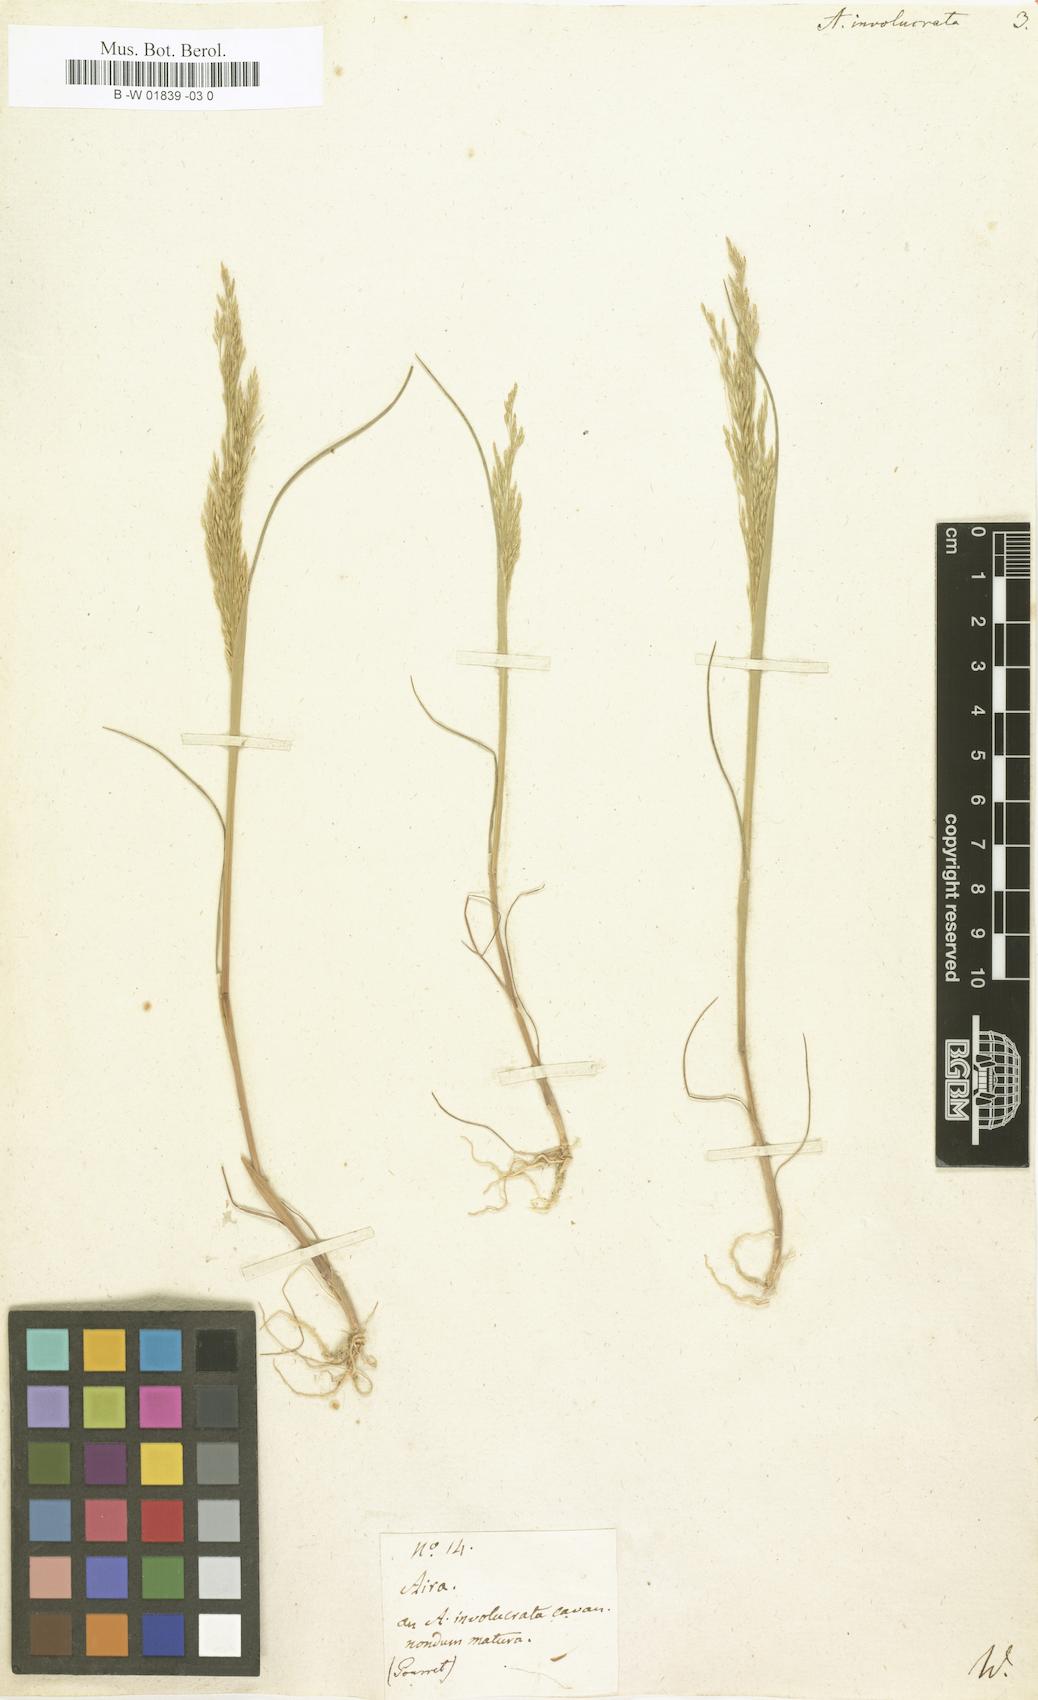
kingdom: Plantae
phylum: Tracheophyta
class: Liliopsida
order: Poales
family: Poaceae
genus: Periballia
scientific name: Periballia involucrata
